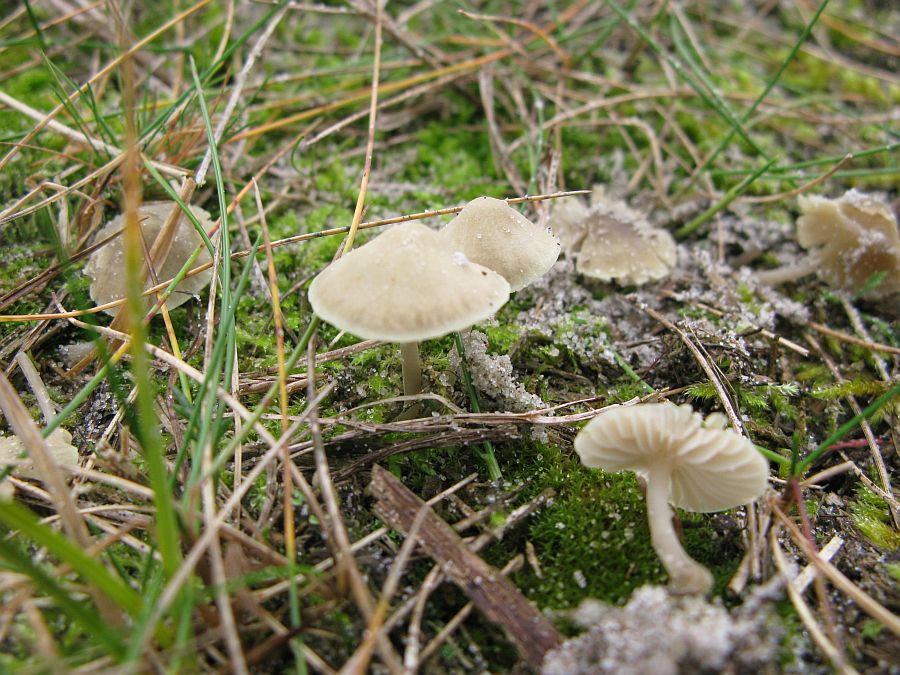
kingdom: Fungi
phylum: Basidiomycota
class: Agaricomycetes
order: Agaricales
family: Mycenaceae
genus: Mycena
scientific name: Mycena chlorantha
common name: klit-huesvamp
